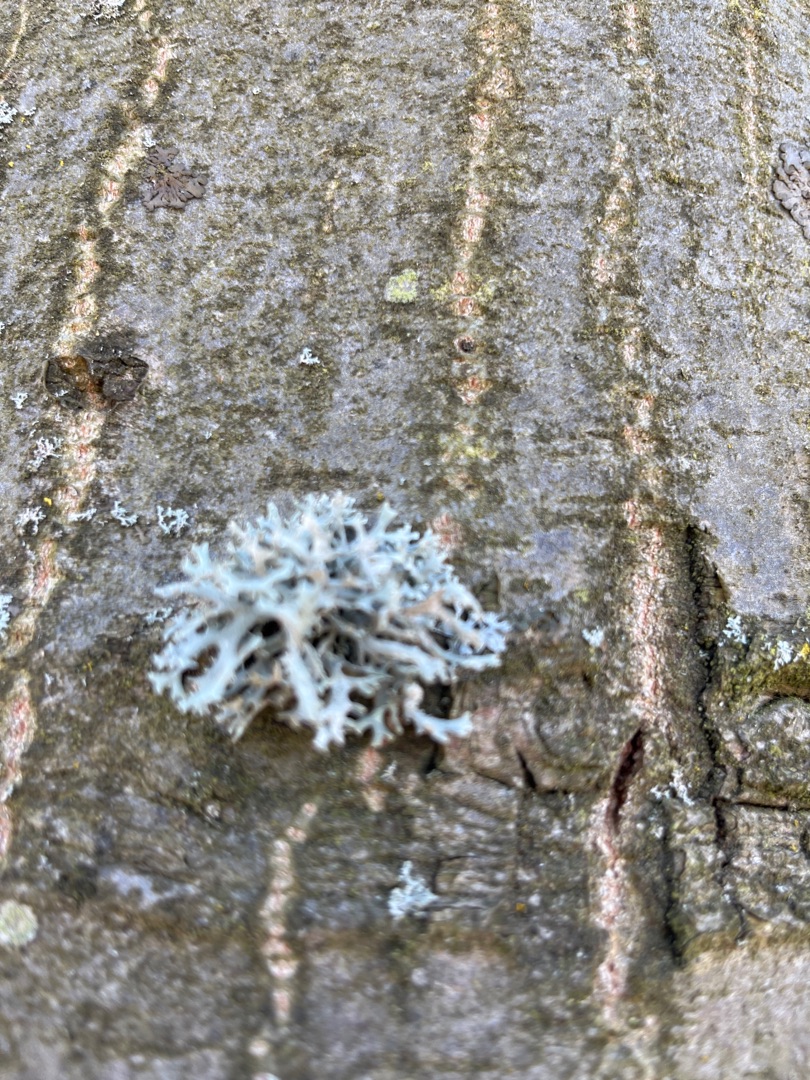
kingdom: Fungi
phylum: Ascomycota
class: Lecanoromycetes
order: Lecanorales
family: Parmeliaceae
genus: Evernia
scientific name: Evernia prunastri
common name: Almindelig slåenlav
